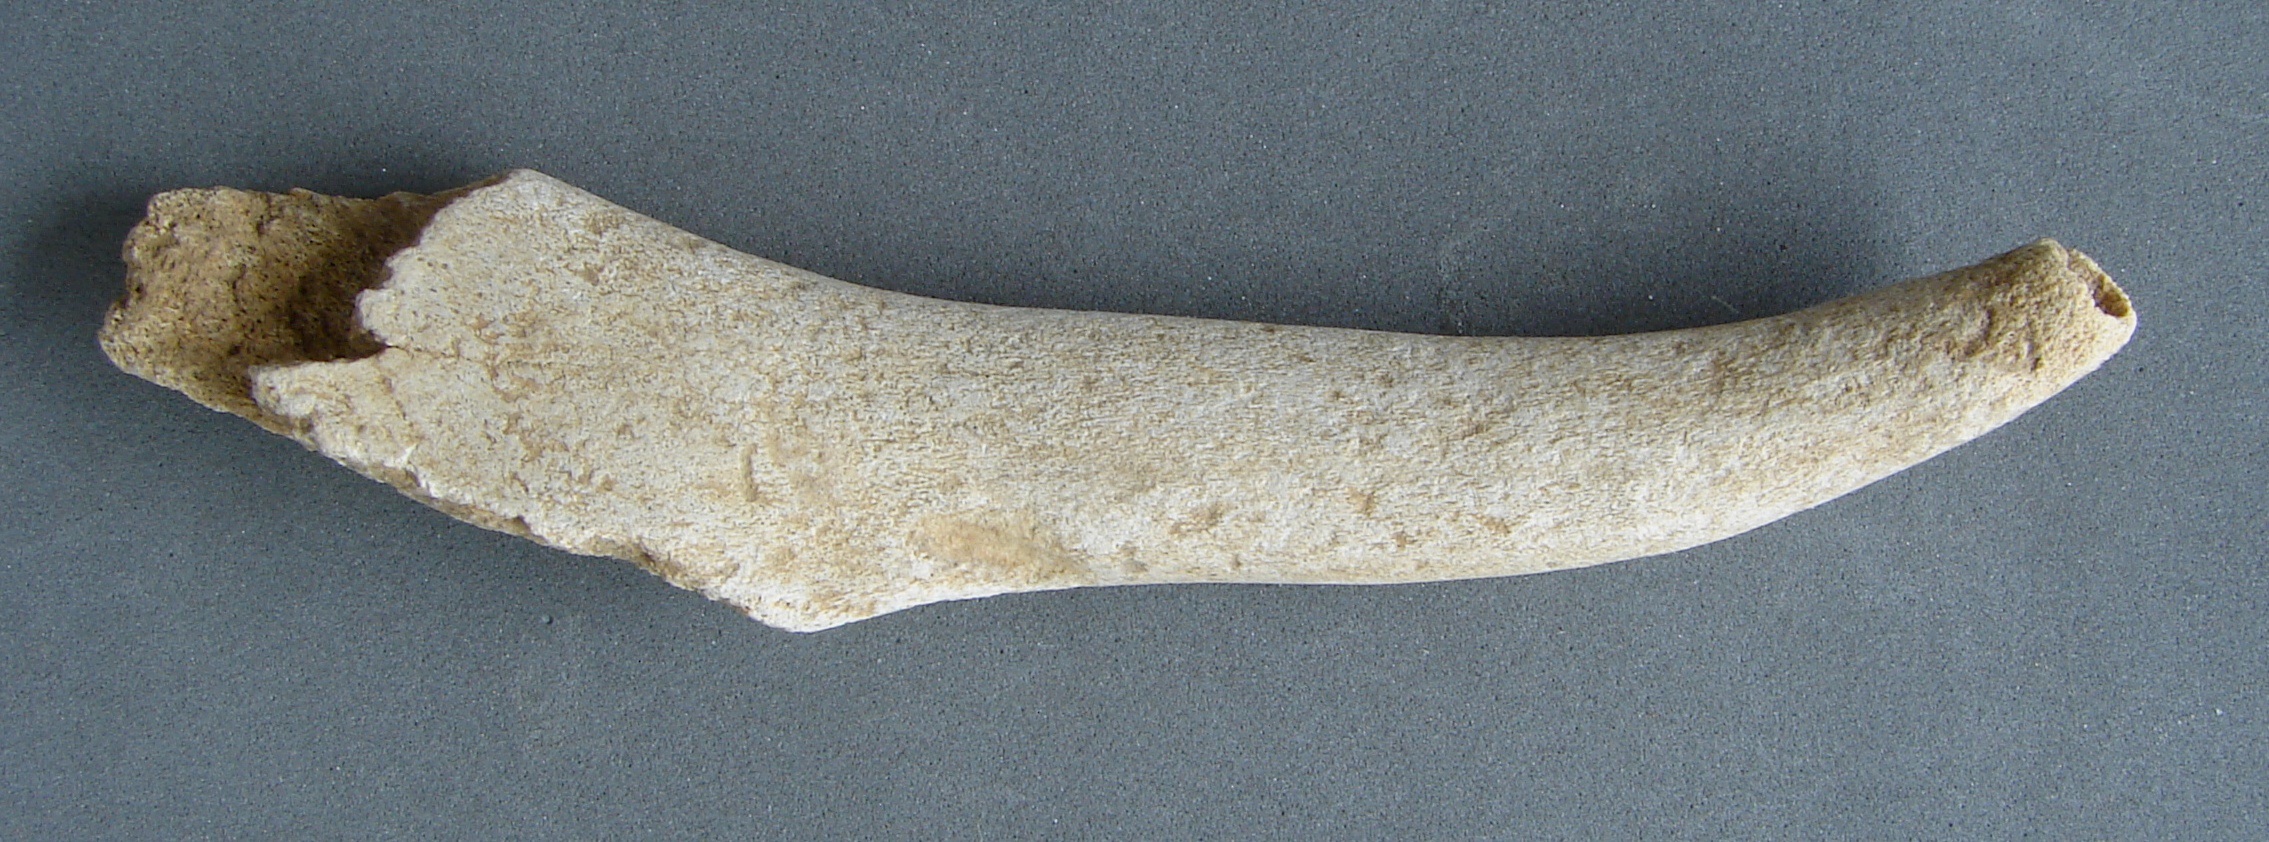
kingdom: Animalia
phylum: Chordata
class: Mammalia
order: Artiodactyla
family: Cervidae
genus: Rangifer
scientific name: Rangifer tarandus
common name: Reindeer
